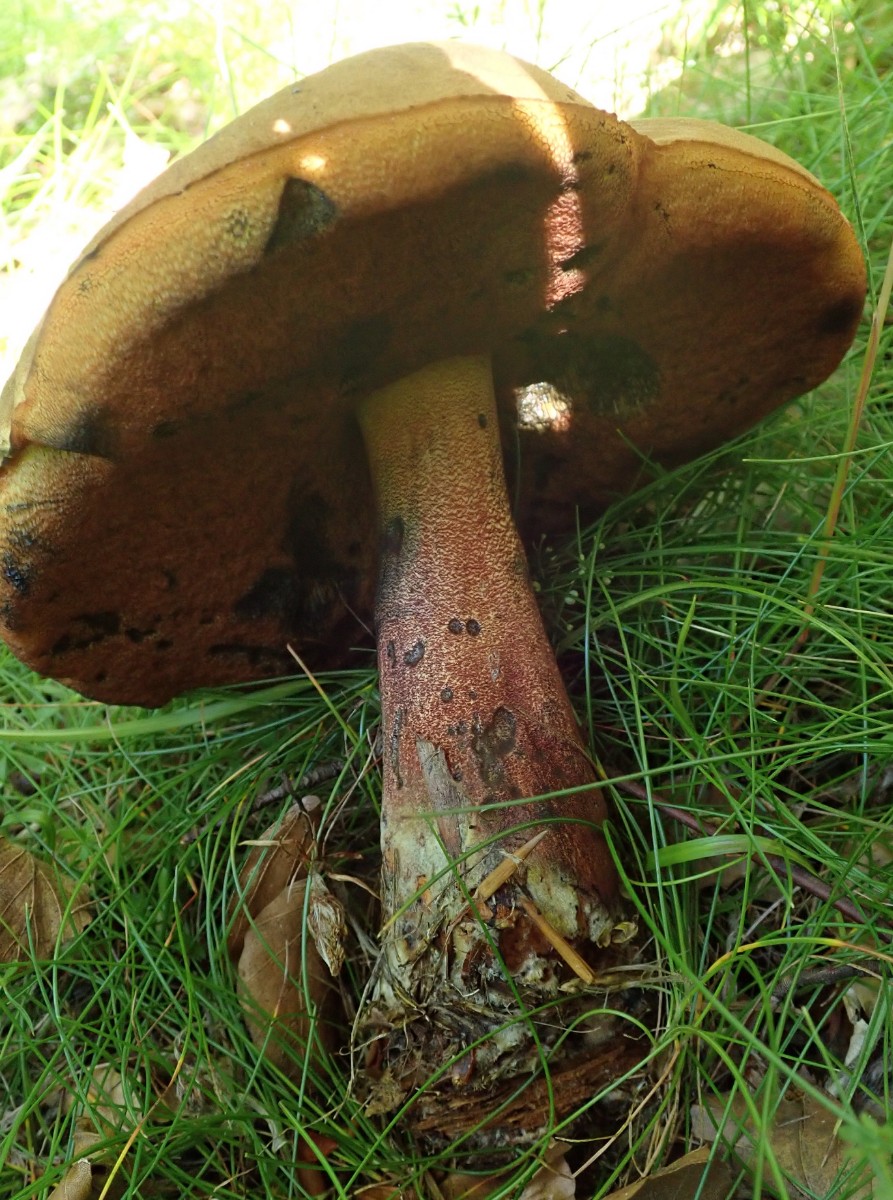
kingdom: Fungi
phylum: Basidiomycota
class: Agaricomycetes
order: Boletales
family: Boletaceae
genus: Neoboletus
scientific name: Neoboletus erythropus
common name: punktstokket indigorørhat
